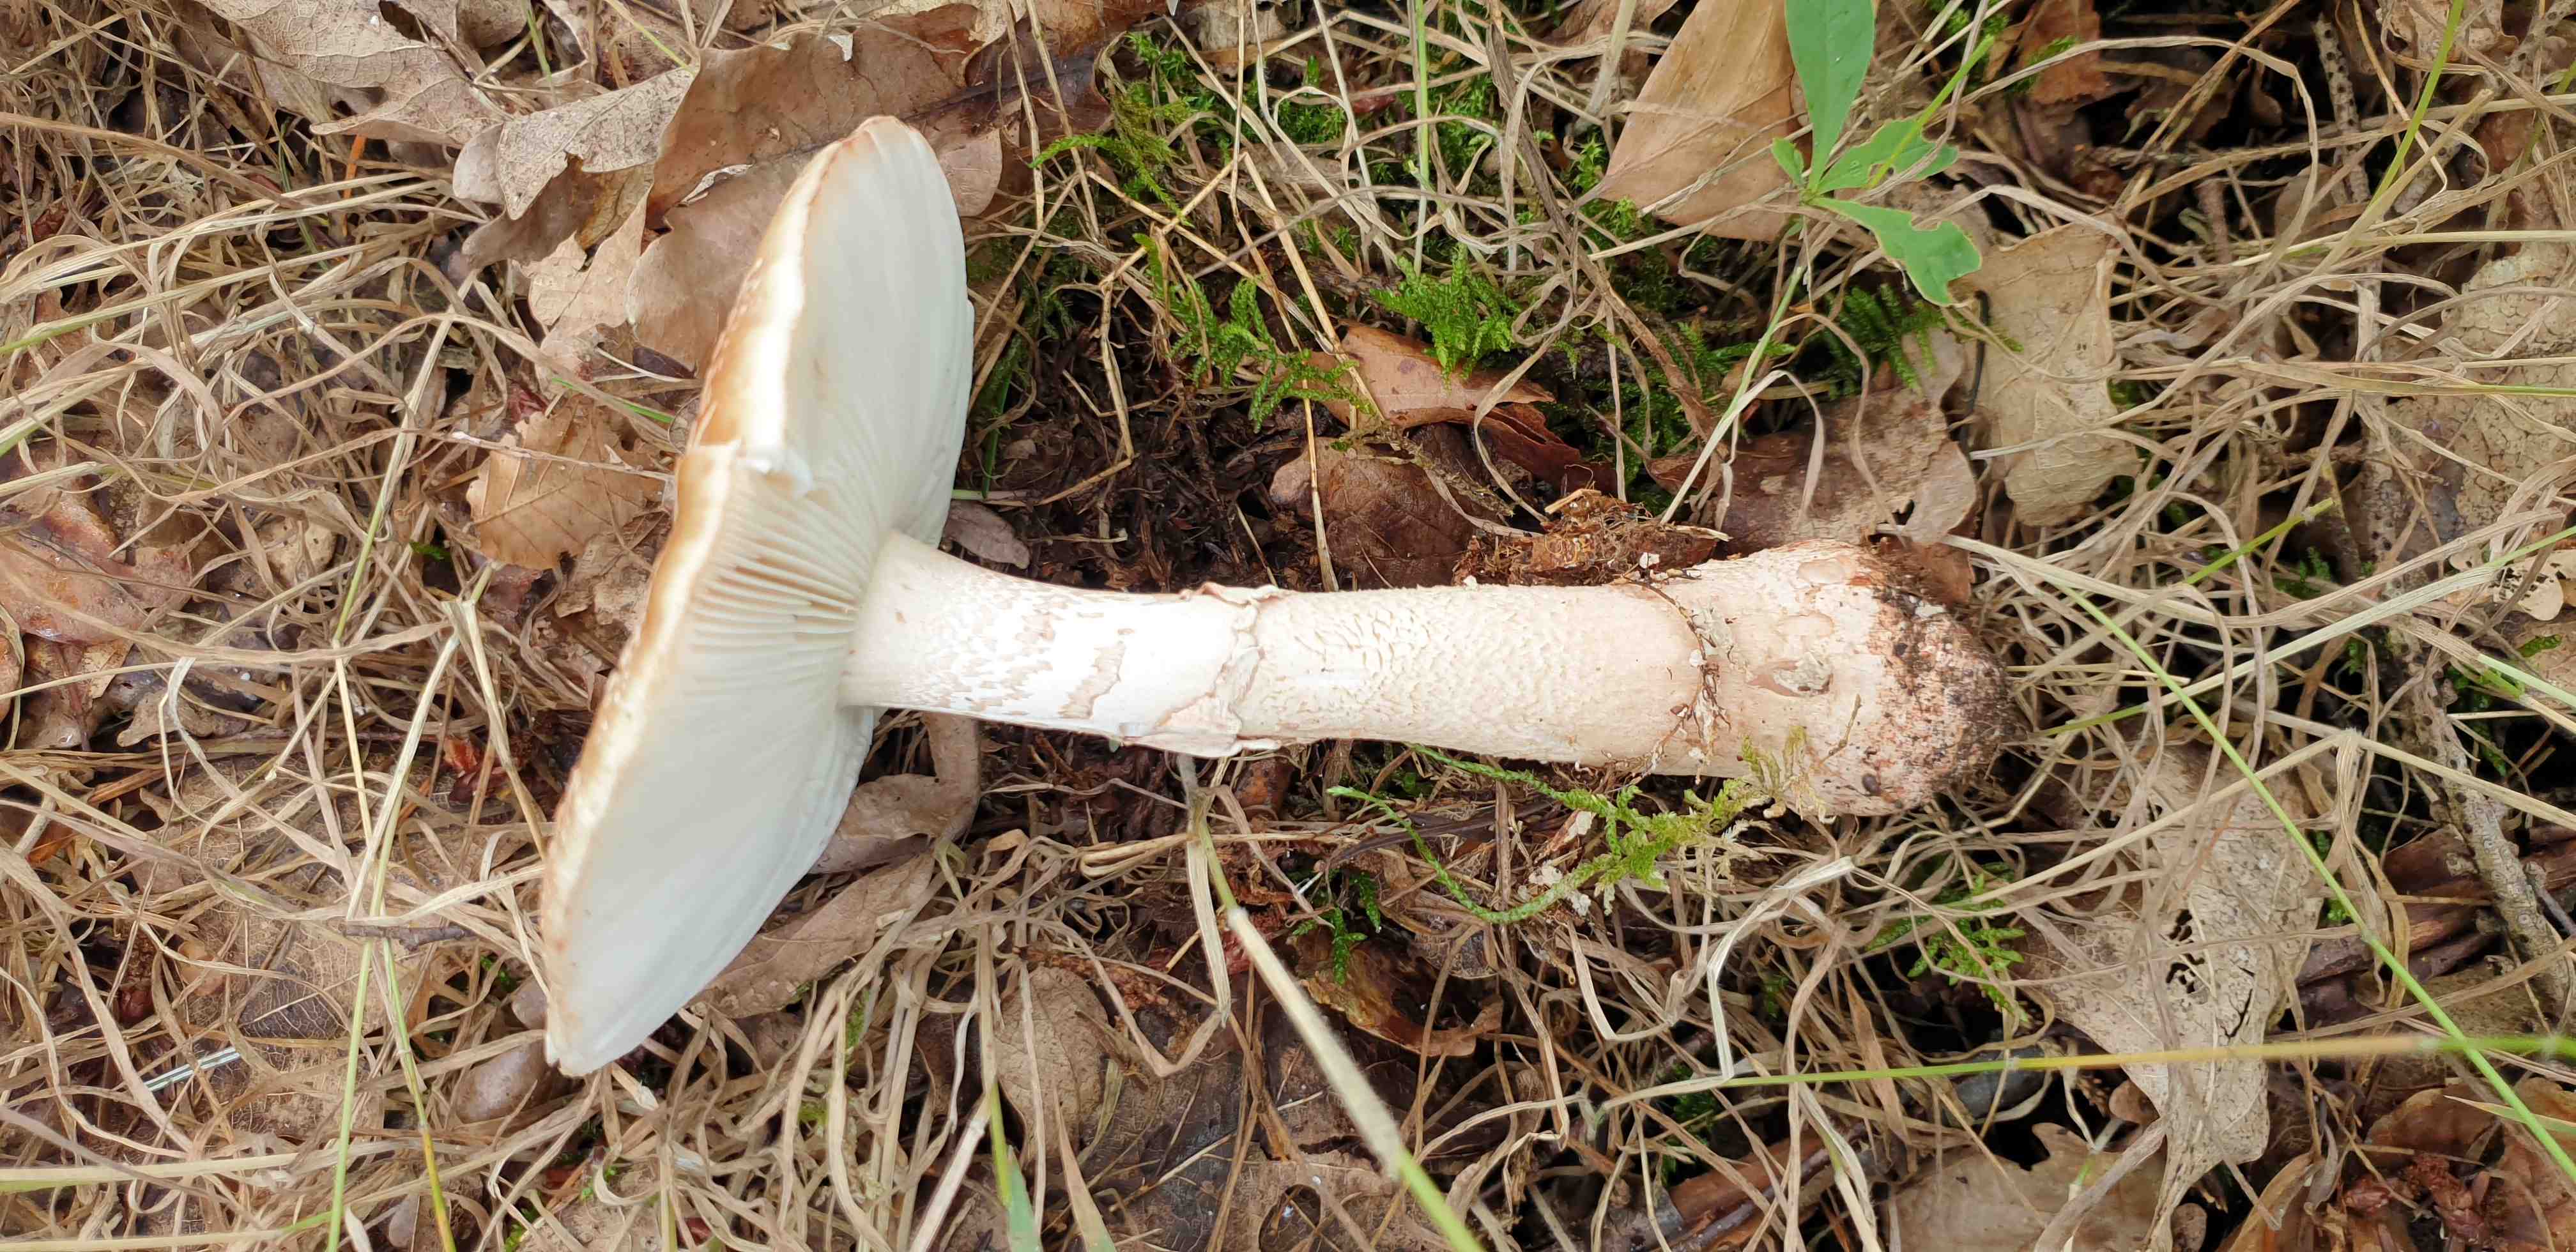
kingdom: Fungi
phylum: Basidiomycota
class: Agaricomycetes
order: Agaricales
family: Amanitaceae
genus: Amanita
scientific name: Amanita rubescens
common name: rødmende fluesvamp
